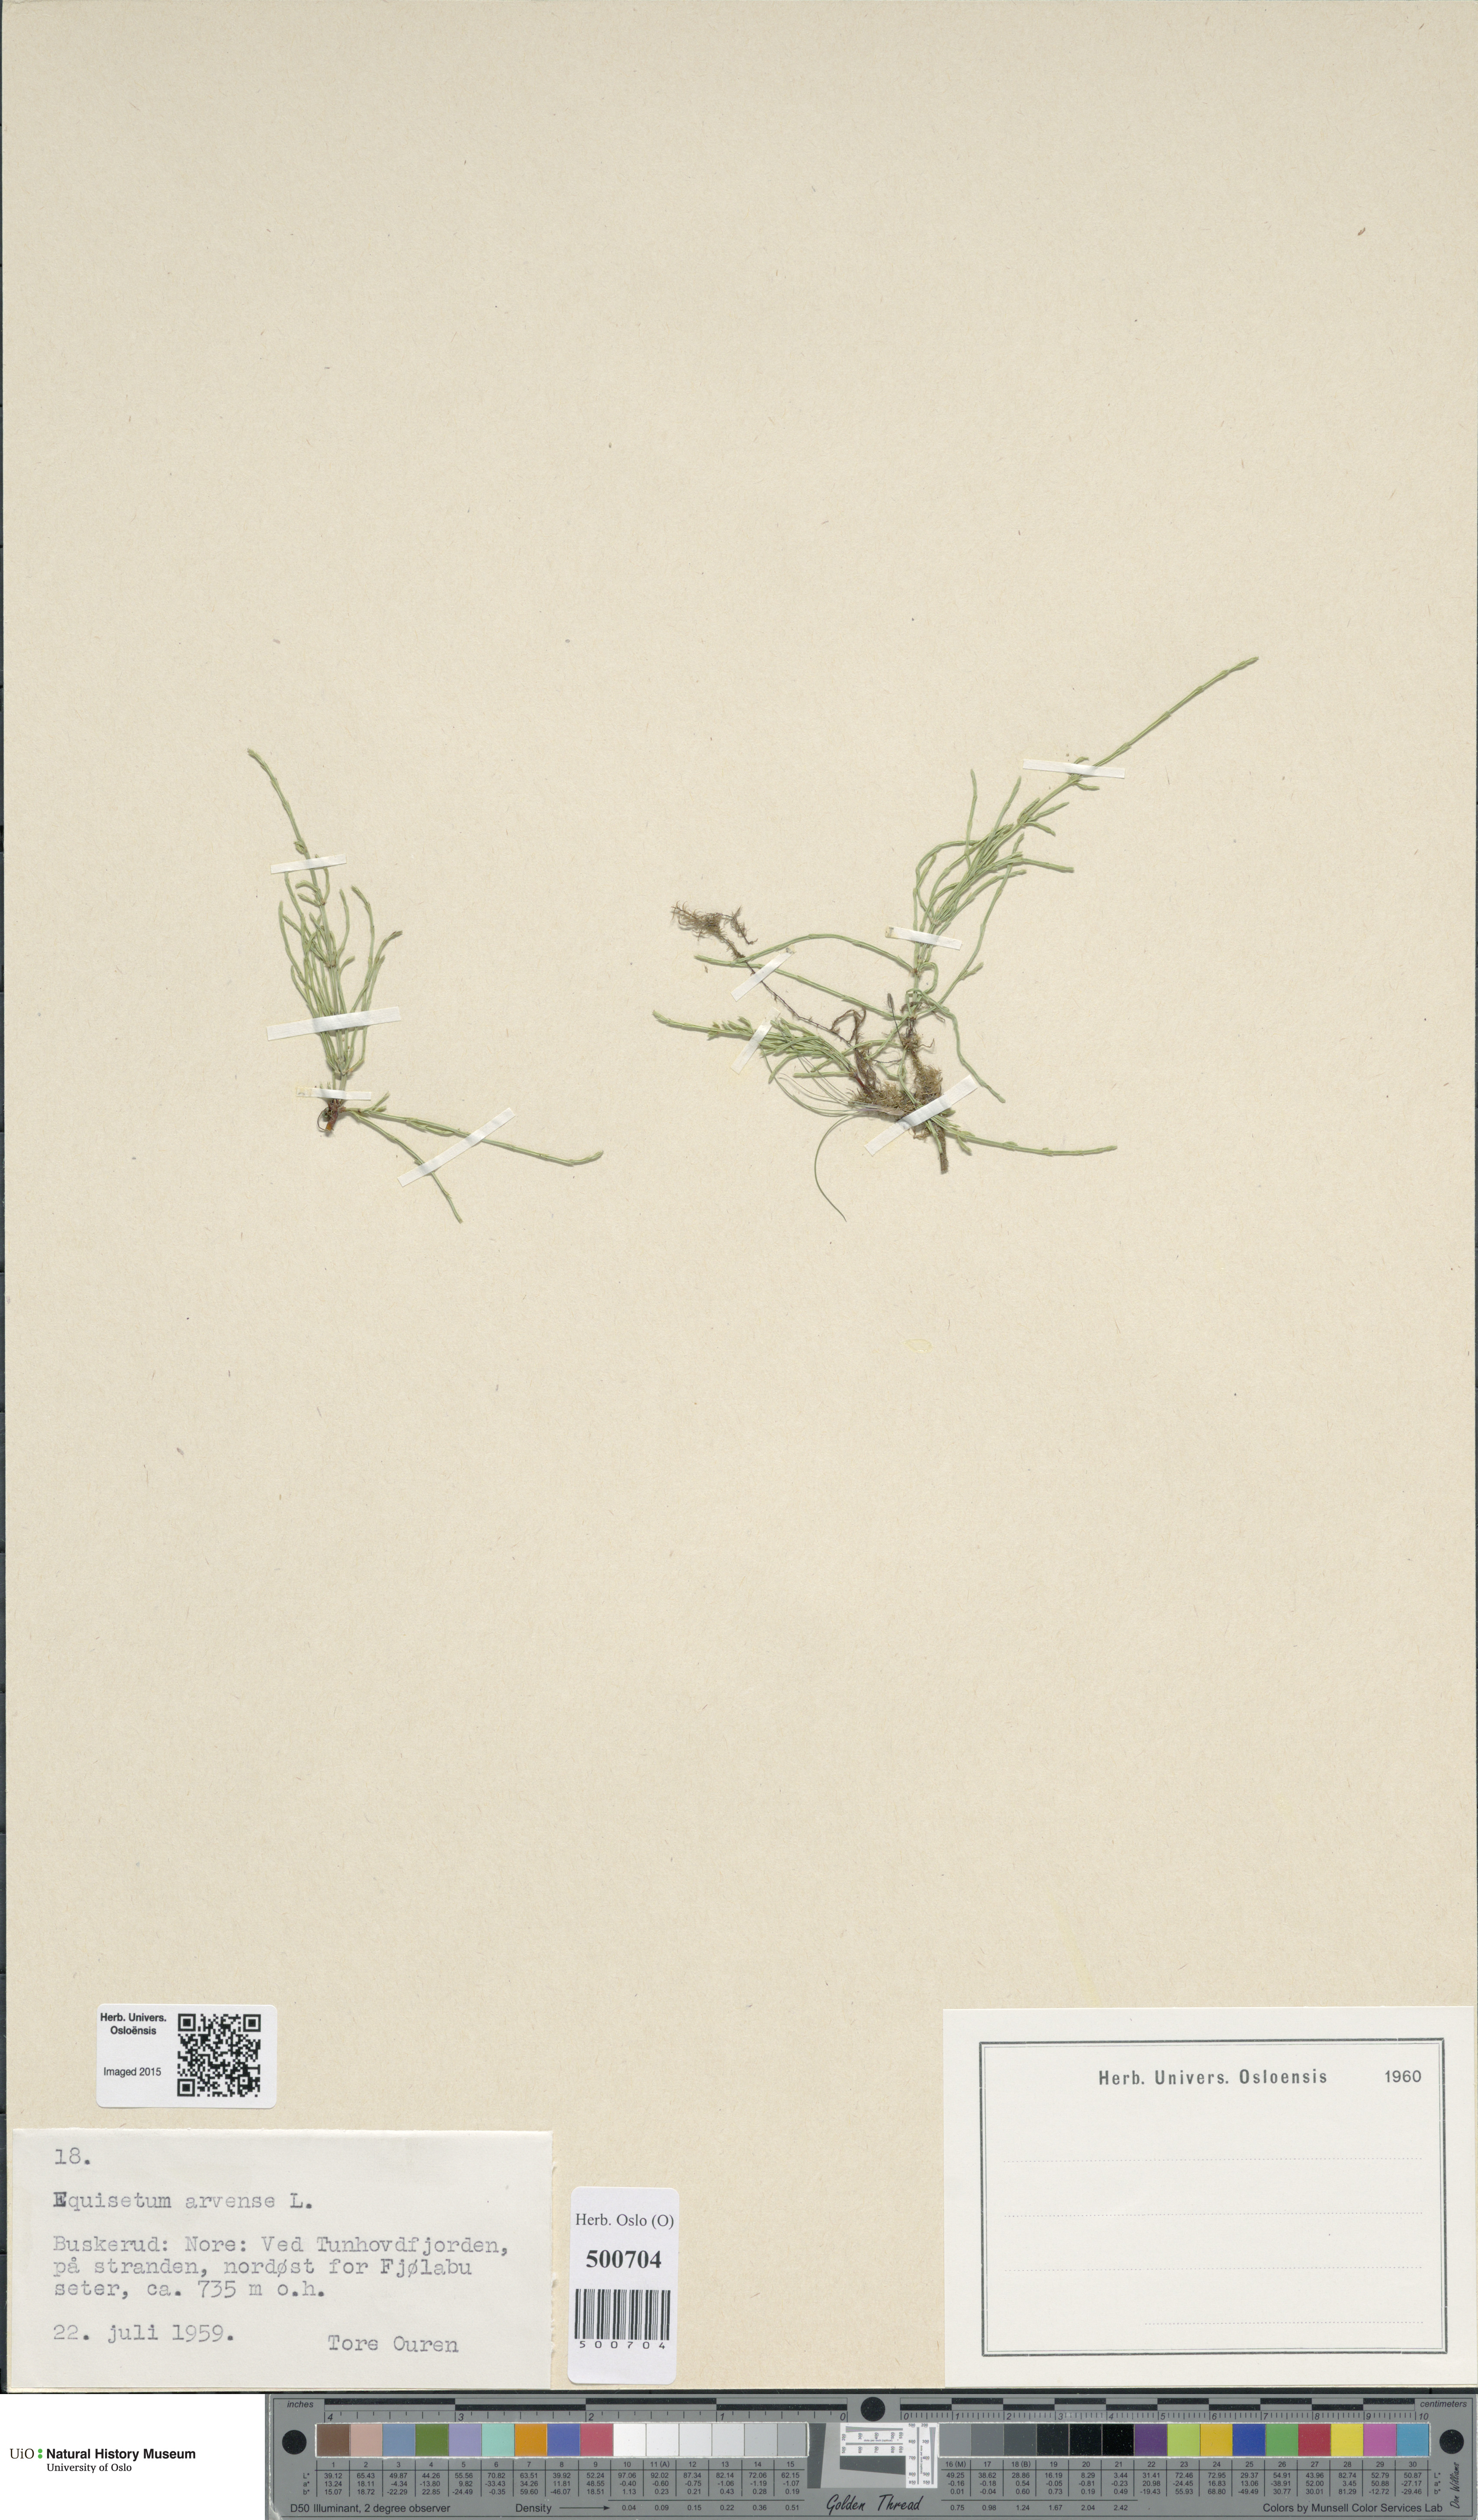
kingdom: Plantae
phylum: Tracheophyta
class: Polypodiopsida
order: Equisetales
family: Equisetaceae
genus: Equisetum
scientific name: Equisetum arvense
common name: Field horsetail
